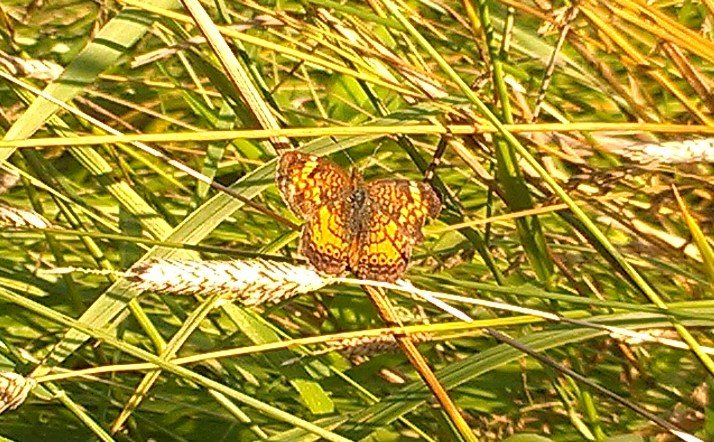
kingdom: Animalia
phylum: Arthropoda
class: Insecta
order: Lepidoptera
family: Nymphalidae
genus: Phyciodes
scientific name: Phyciodes tharos
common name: Northern Crescent
